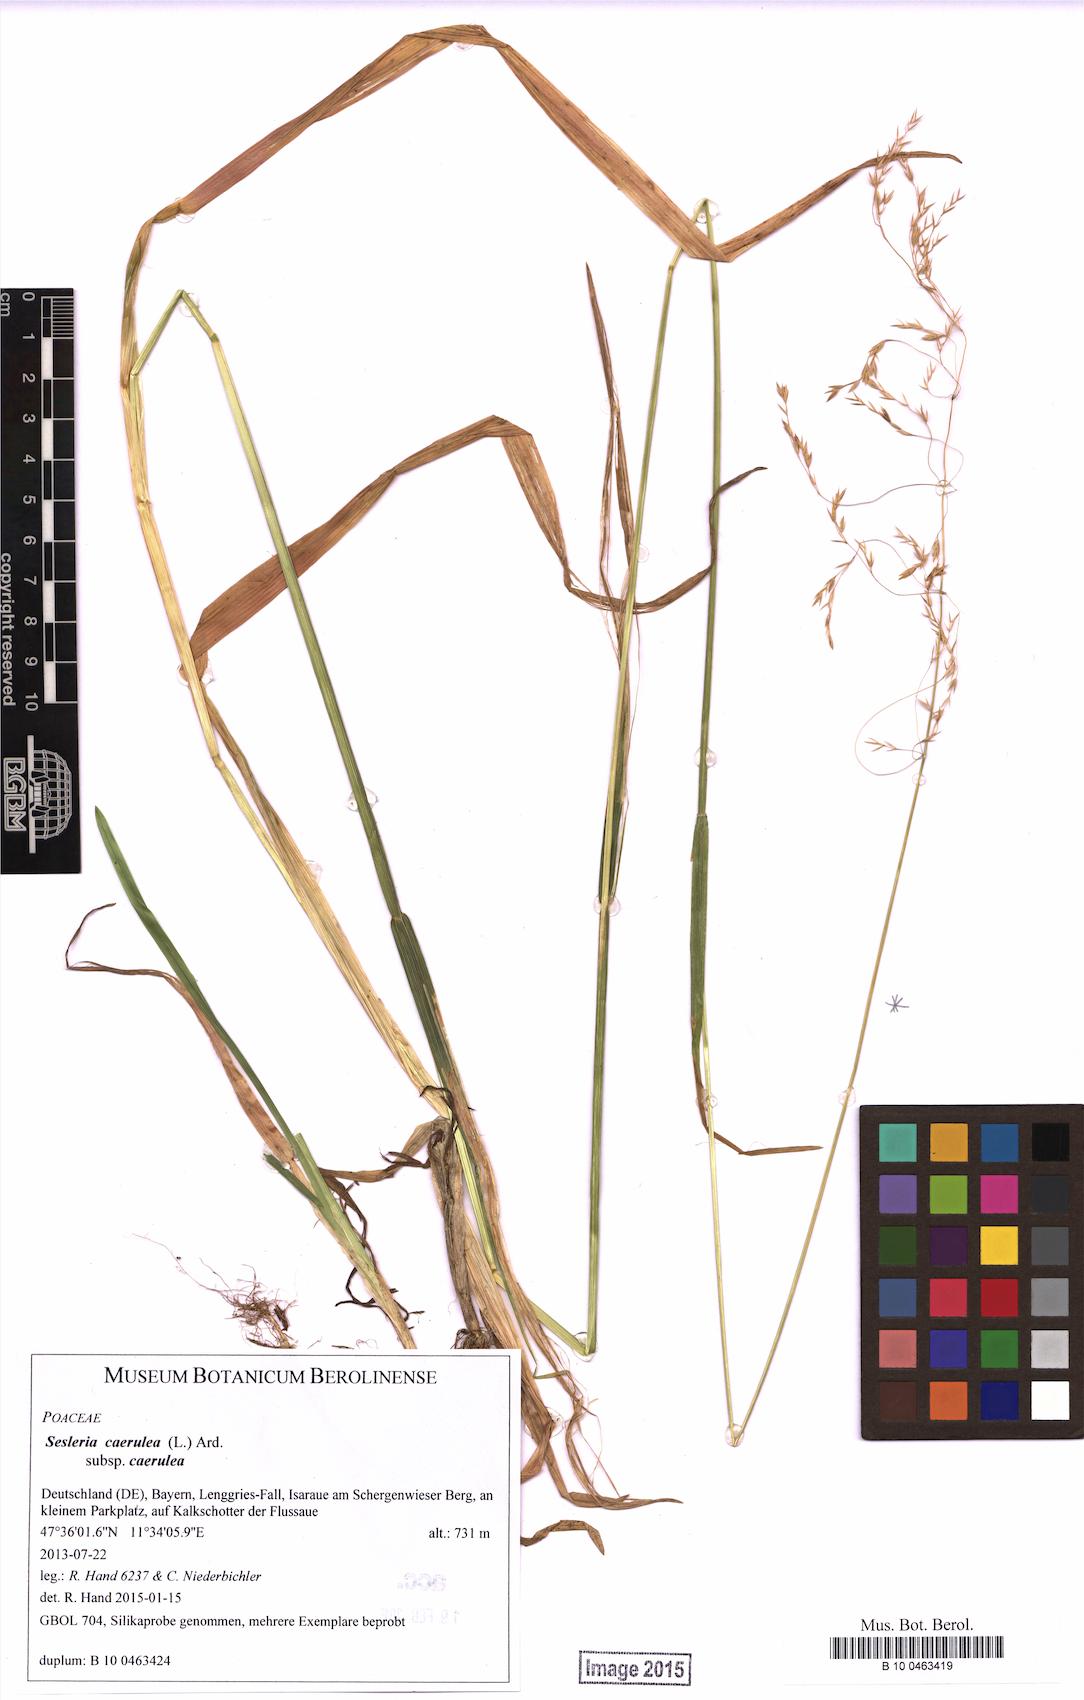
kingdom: Plantae
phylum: Tracheophyta
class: Liliopsida
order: Poales
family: Poaceae
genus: Poa
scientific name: Poa remota
